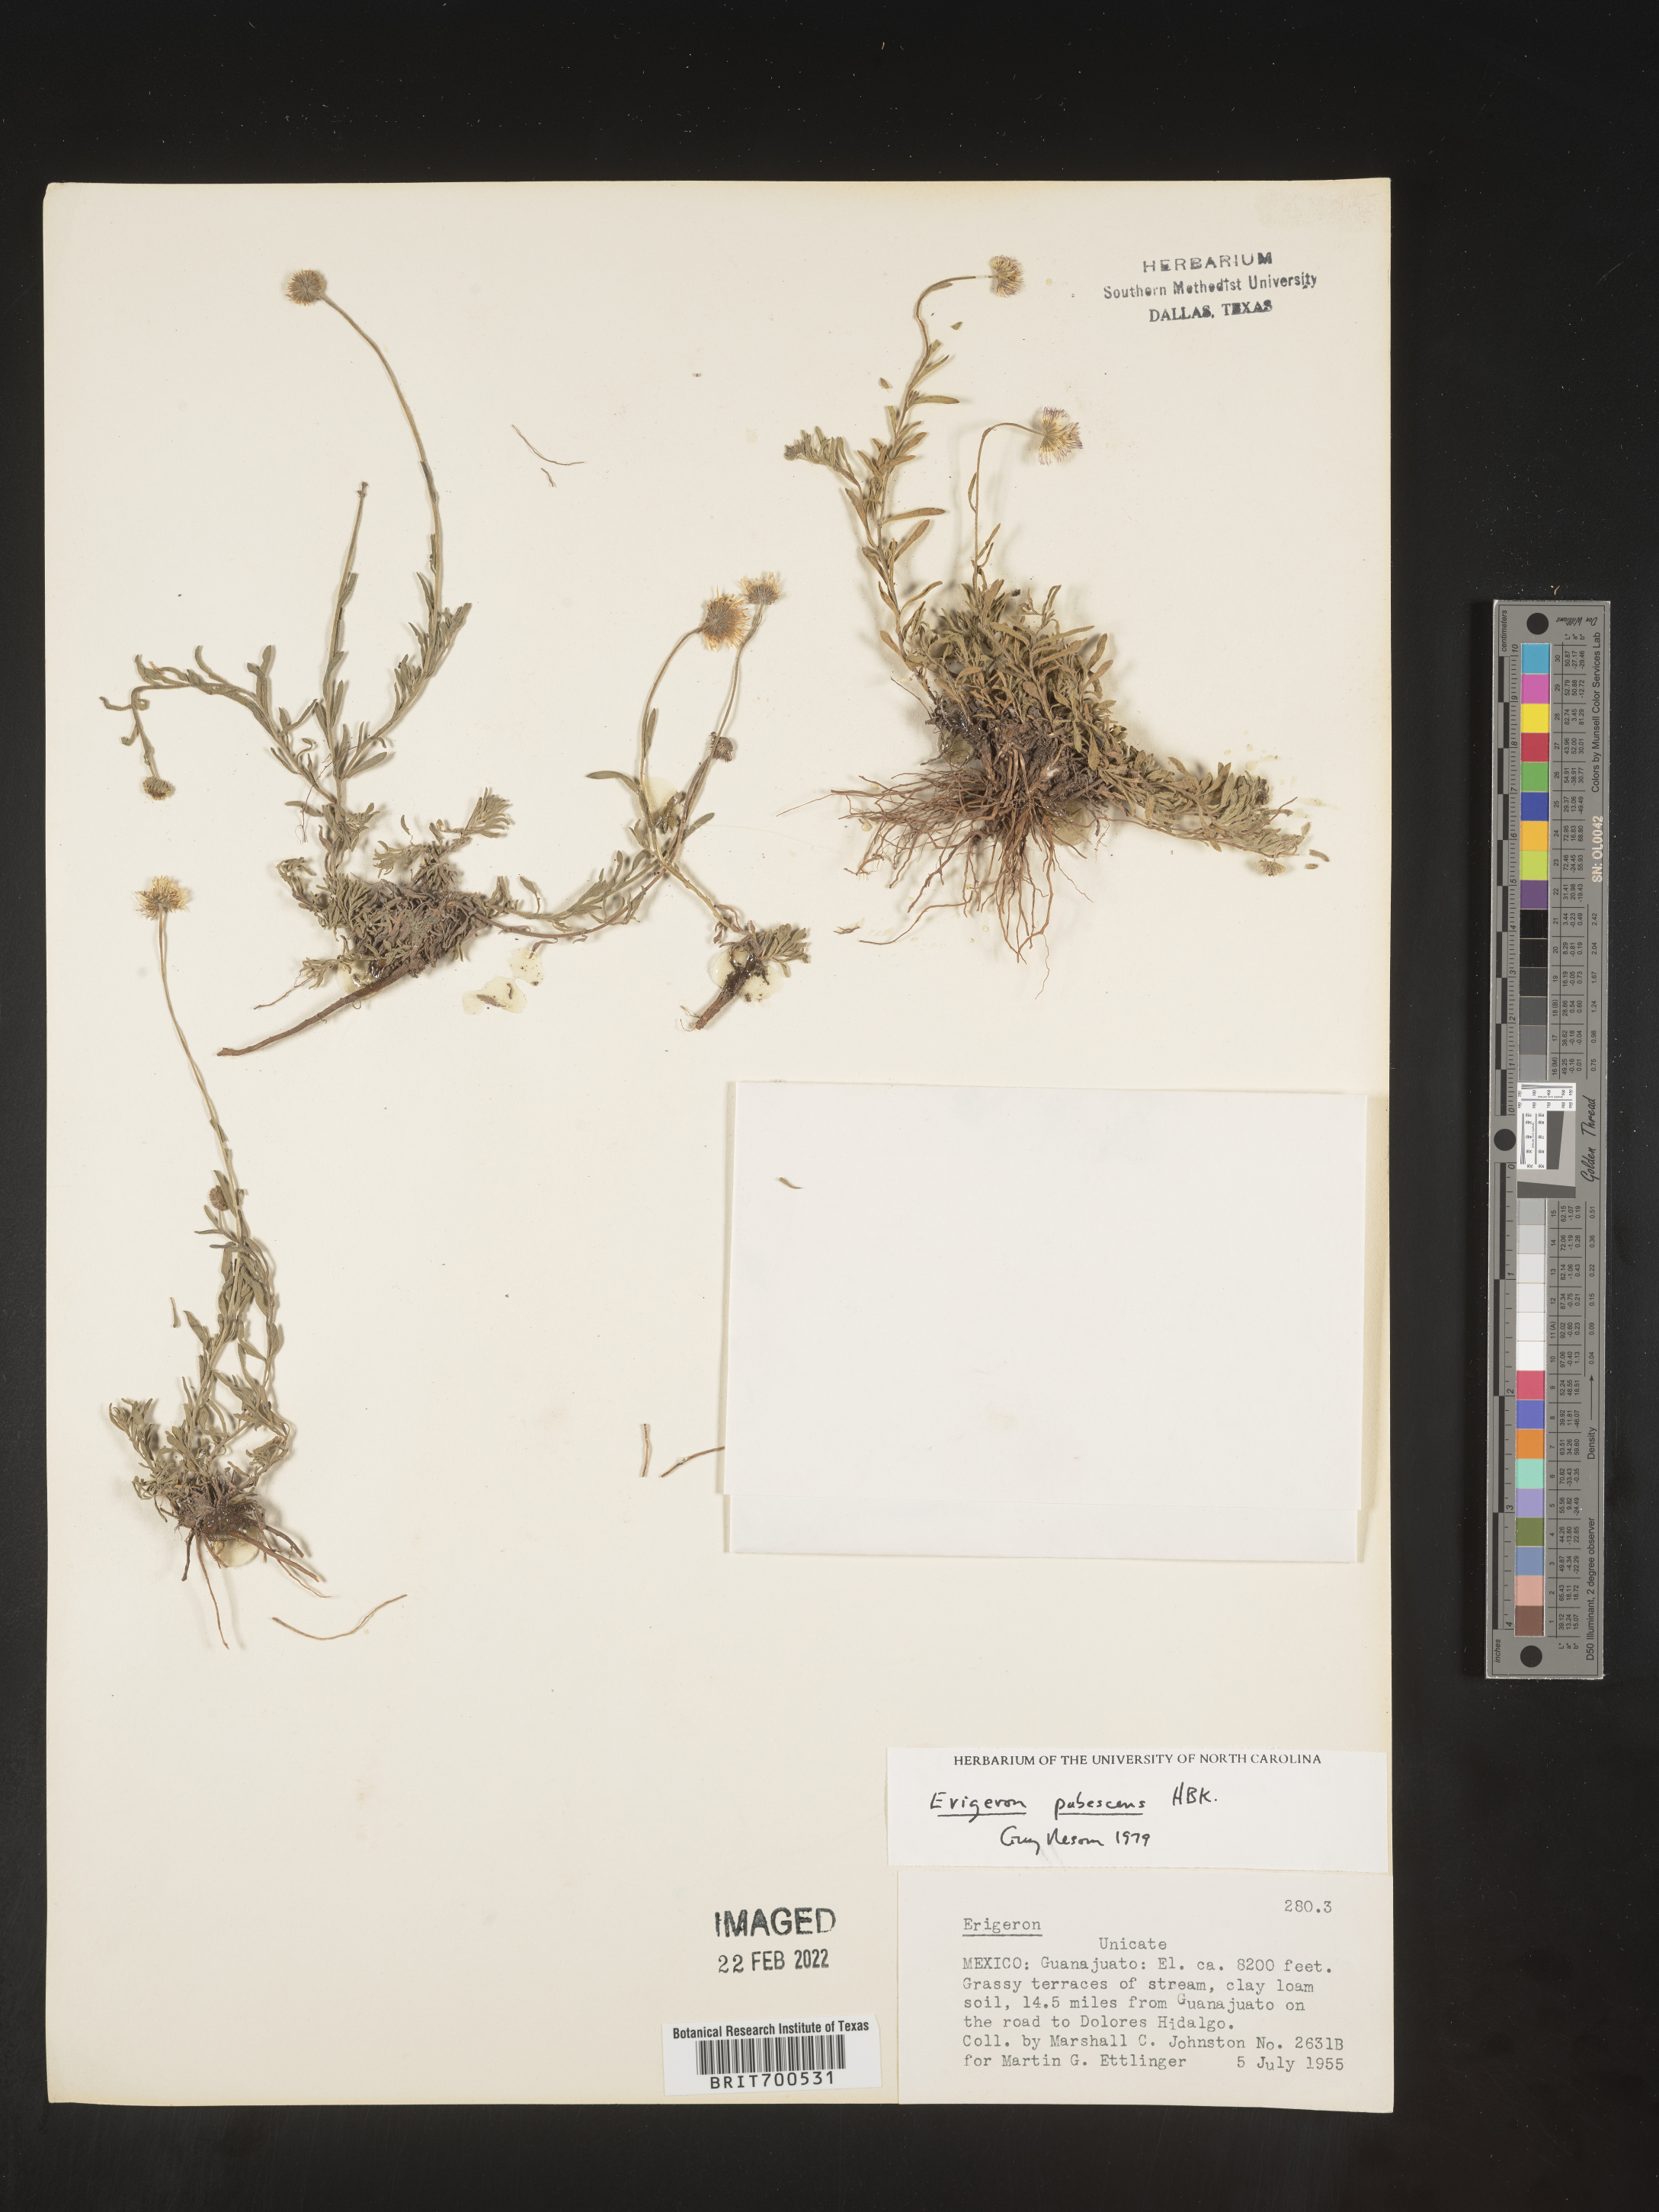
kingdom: Plantae
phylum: Tracheophyta
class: Magnoliopsida
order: Asterales
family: Asteraceae
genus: Erigeron
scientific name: Erigeron pubescens
